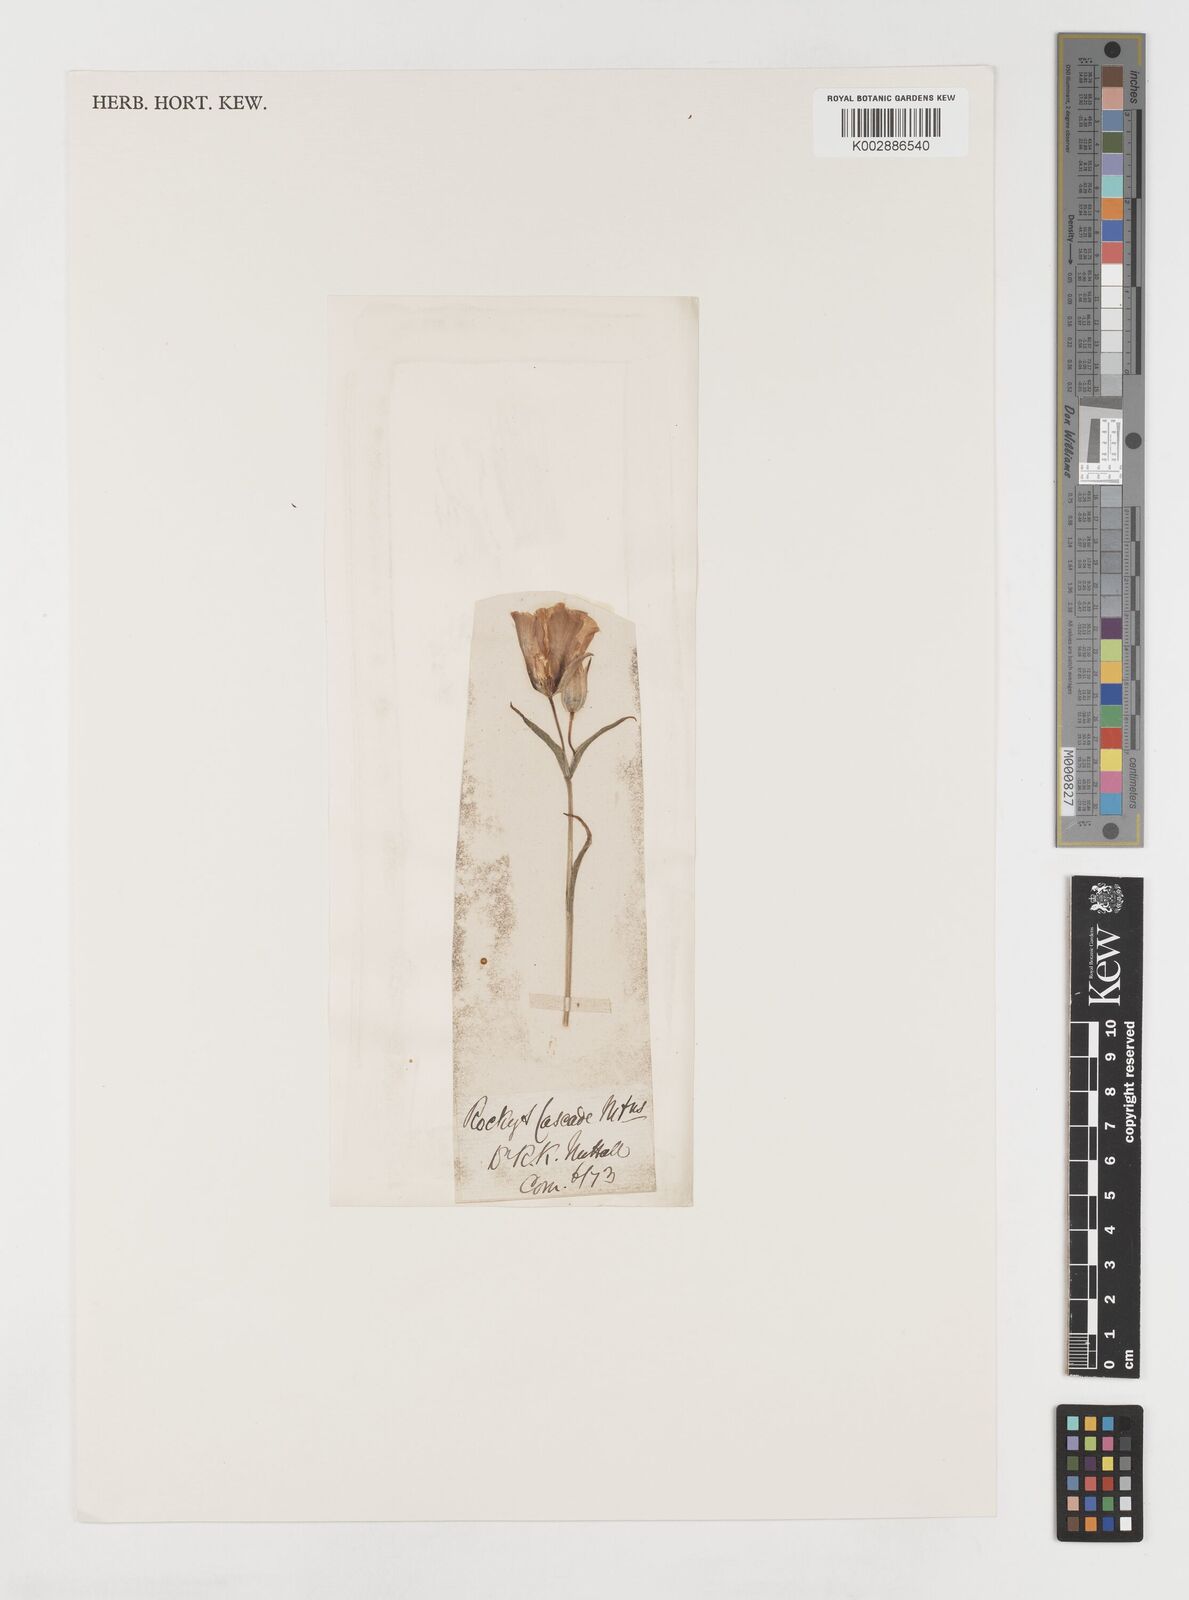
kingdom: Plantae
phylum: Tracheophyta
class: Liliopsida
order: Liliales
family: Liliaceae
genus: Calochortus
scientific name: Calochortus
